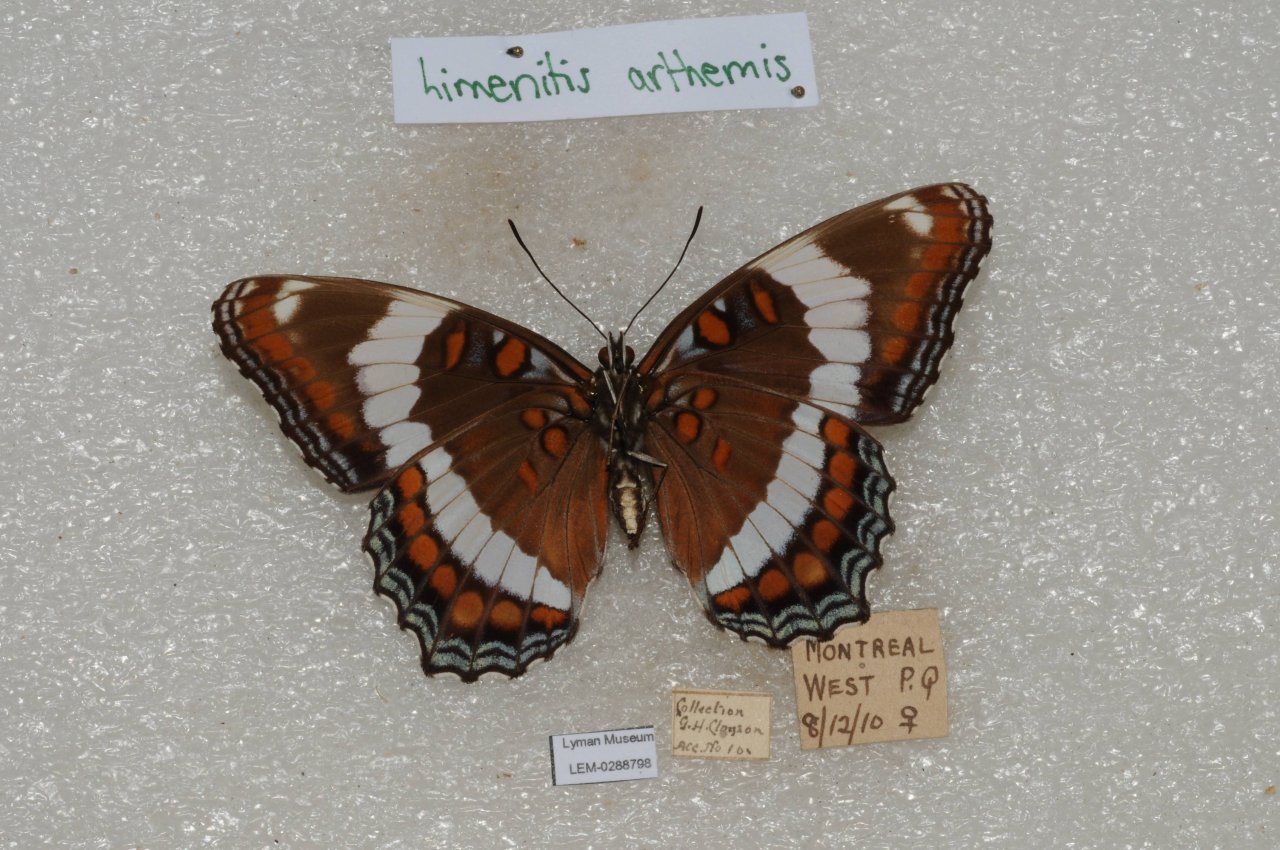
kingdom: Animalia
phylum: Arthropoda
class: Insecta
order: Lepidoptera
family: Nymphalidae
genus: Limenitis
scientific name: Limenitis arthemis
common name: Red-spotted Admiral
